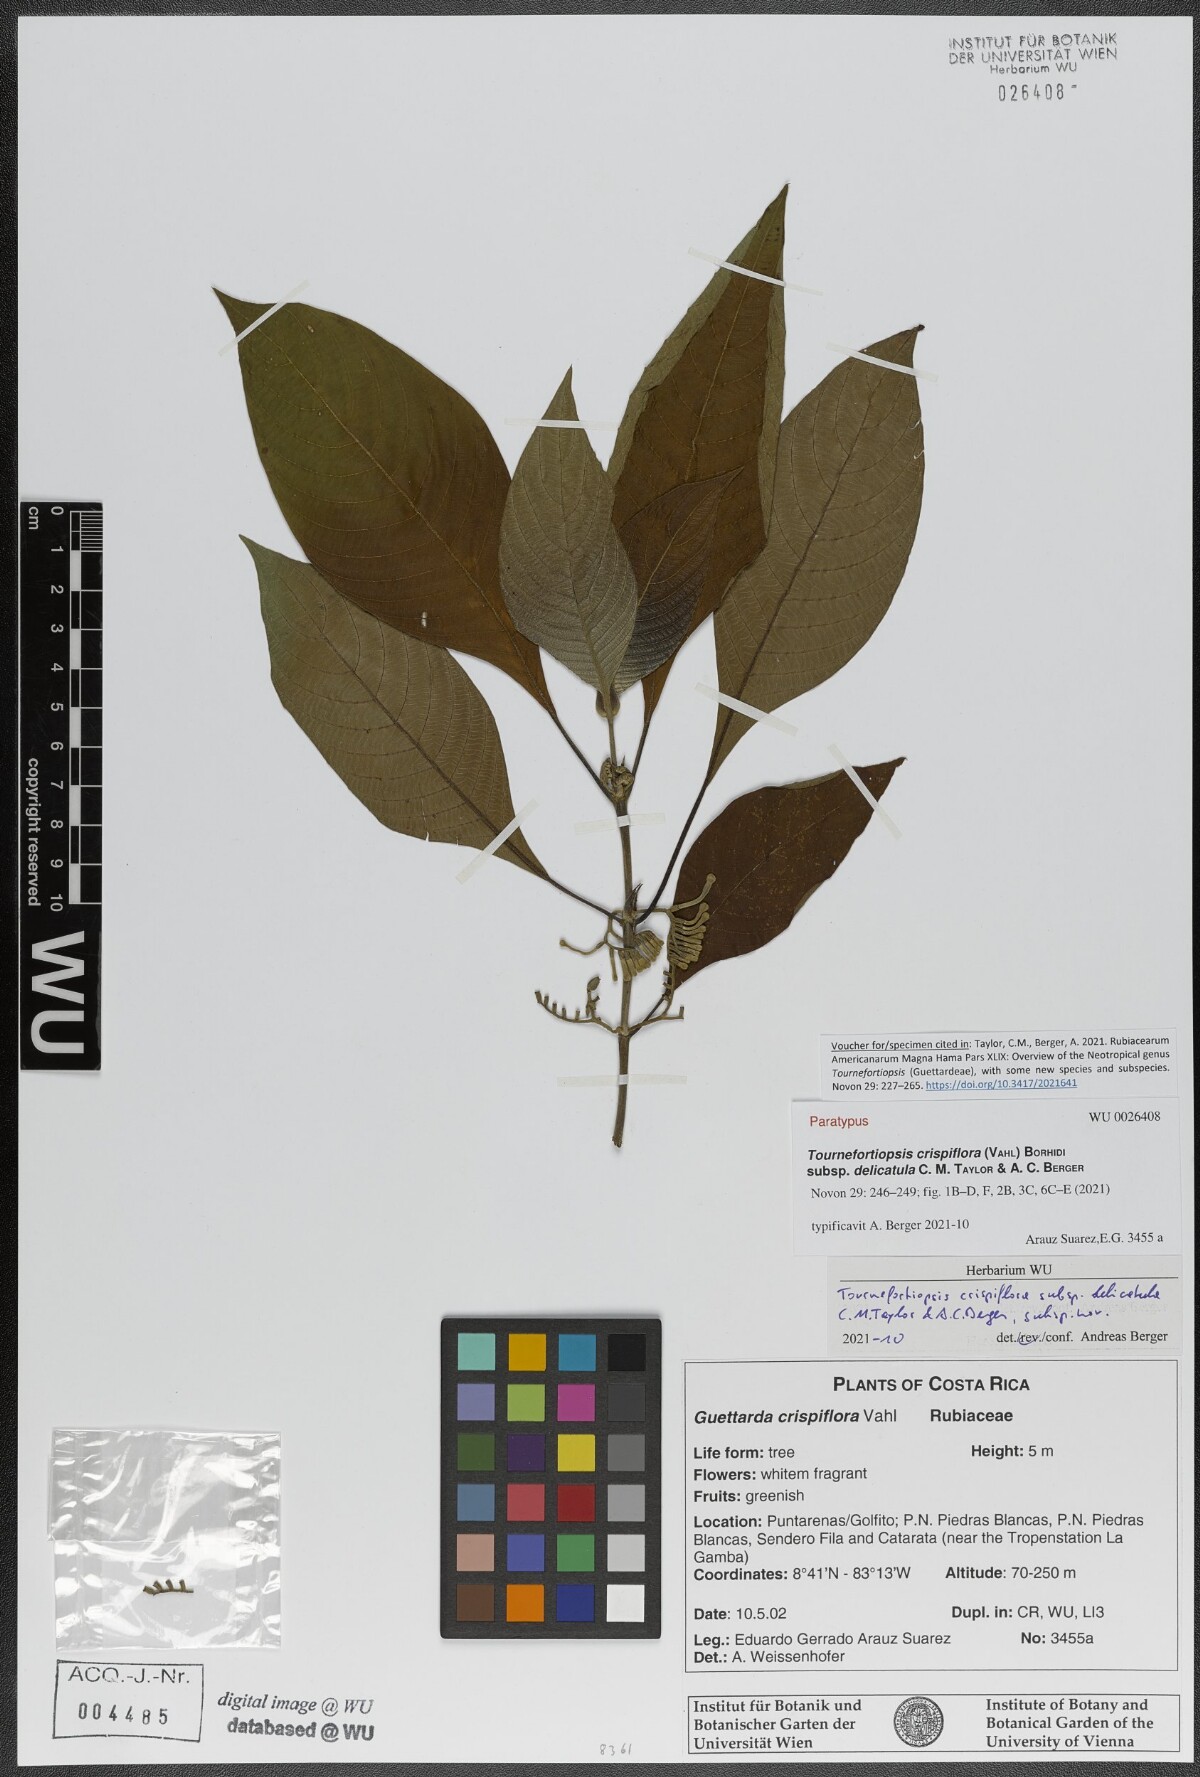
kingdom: Plantae
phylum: Tracheophyta
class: Magnoliopsida
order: Gentianales
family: Rubiaceae
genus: Tournefortiopsis
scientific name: Tournefortiopsis crispiflora
